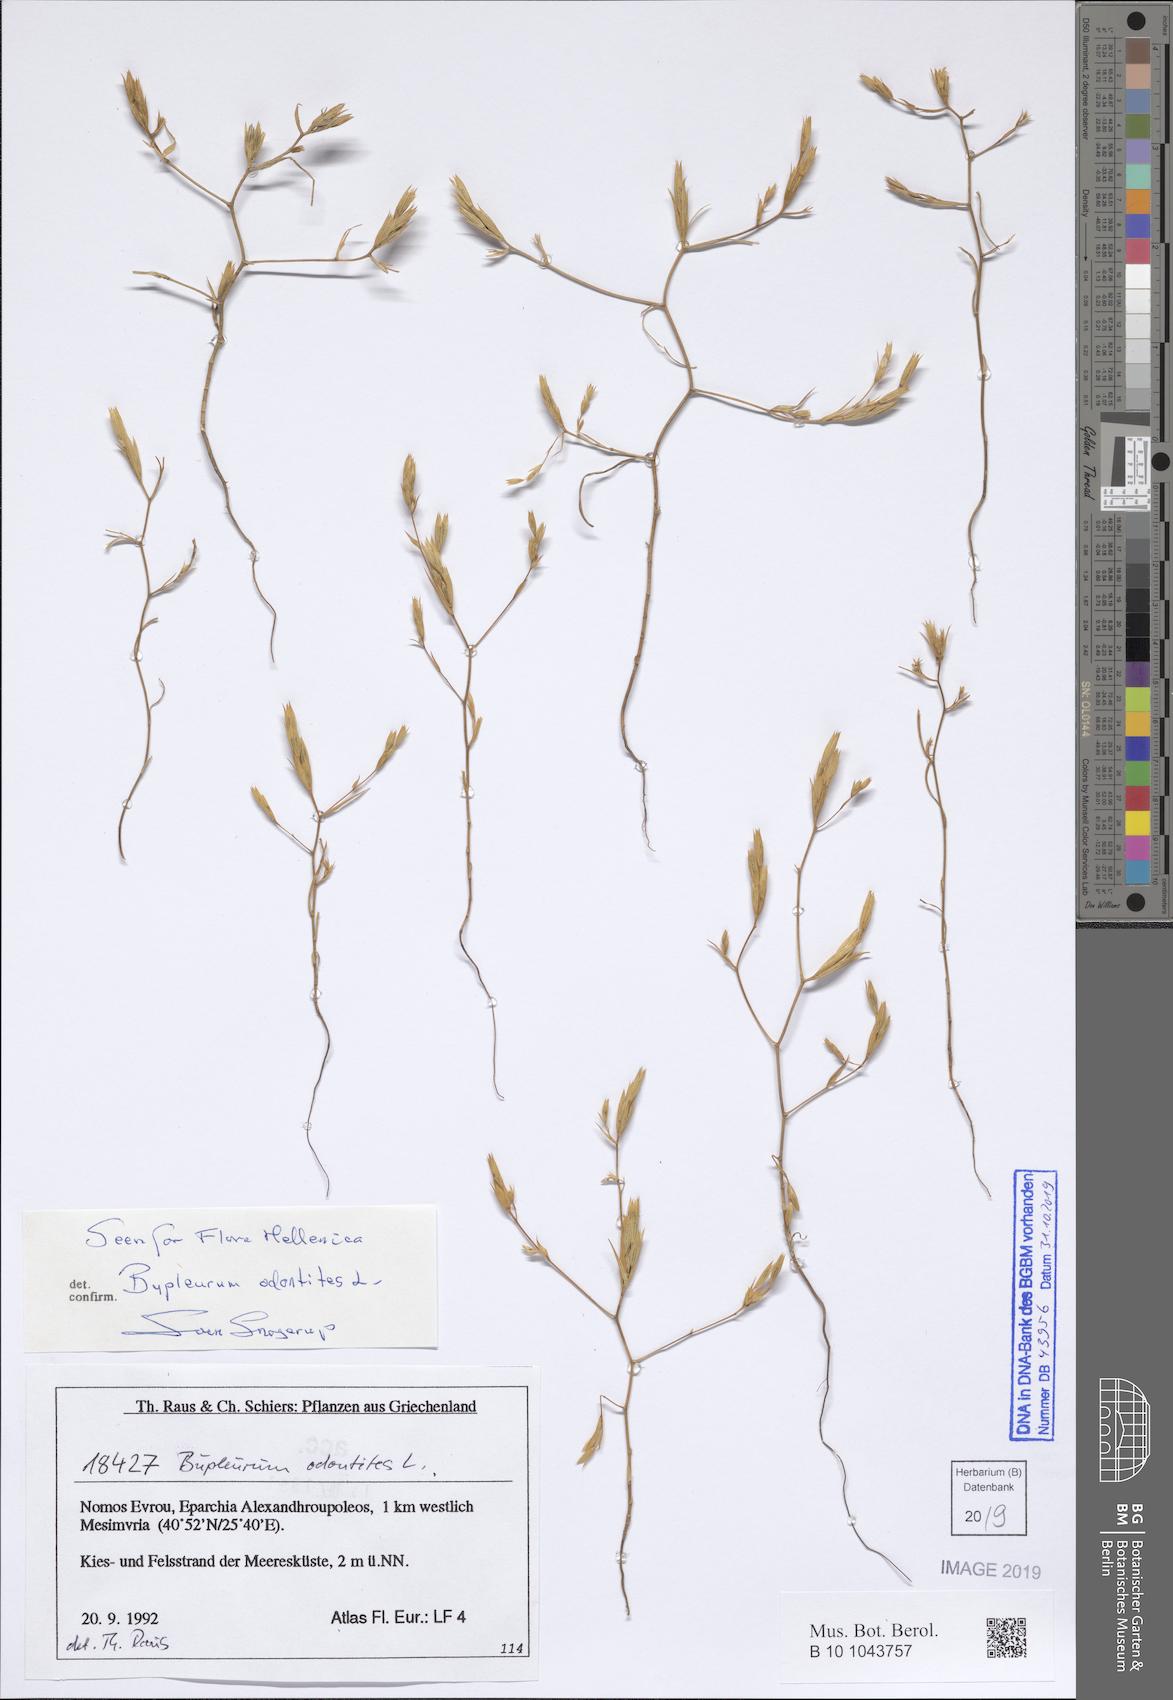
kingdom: Plantae
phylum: Tracheophyta
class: Magnoliopsida
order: Apiales
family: Apiaceae
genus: Bupleurum
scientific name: Bupleurum odontites
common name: Narrowleaf thorow wax
